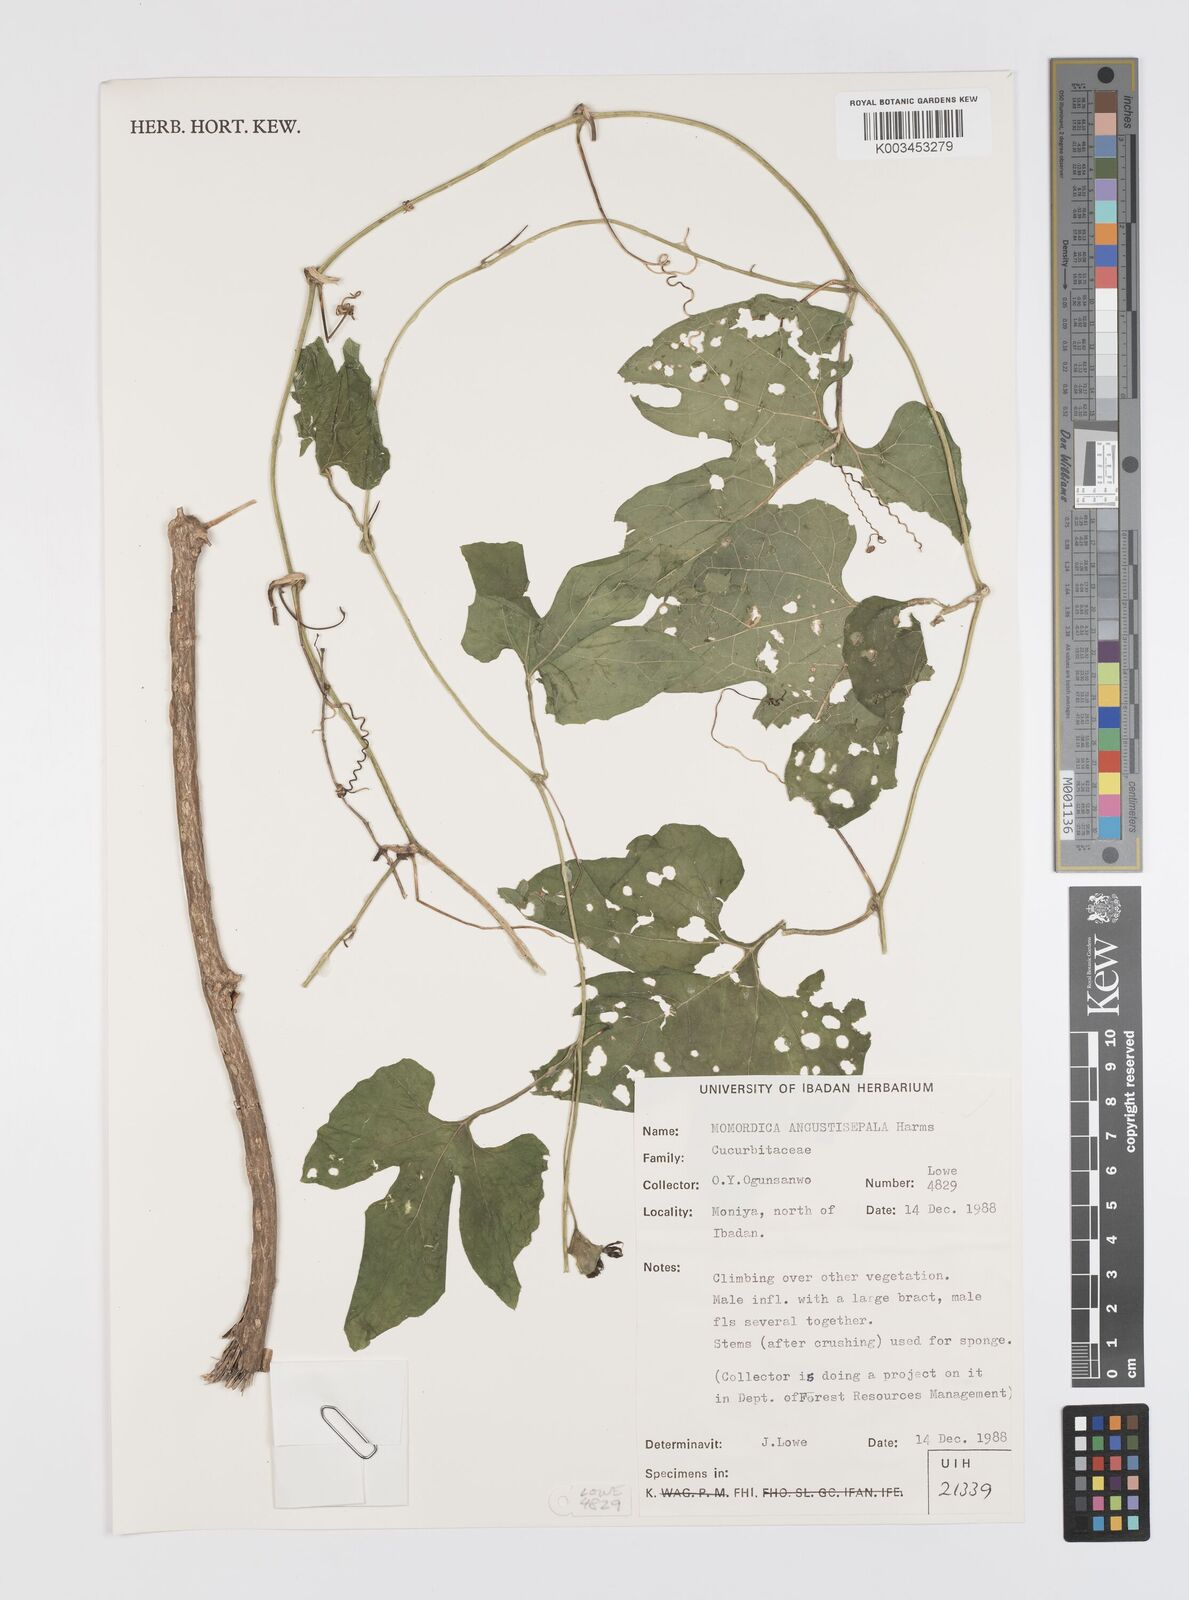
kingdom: Plantae
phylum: Tracheophyta
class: Magnoliopsida
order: Cucurbitales
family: Cucurbitaceae
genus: Momordica
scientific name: Momordica angustisepala
